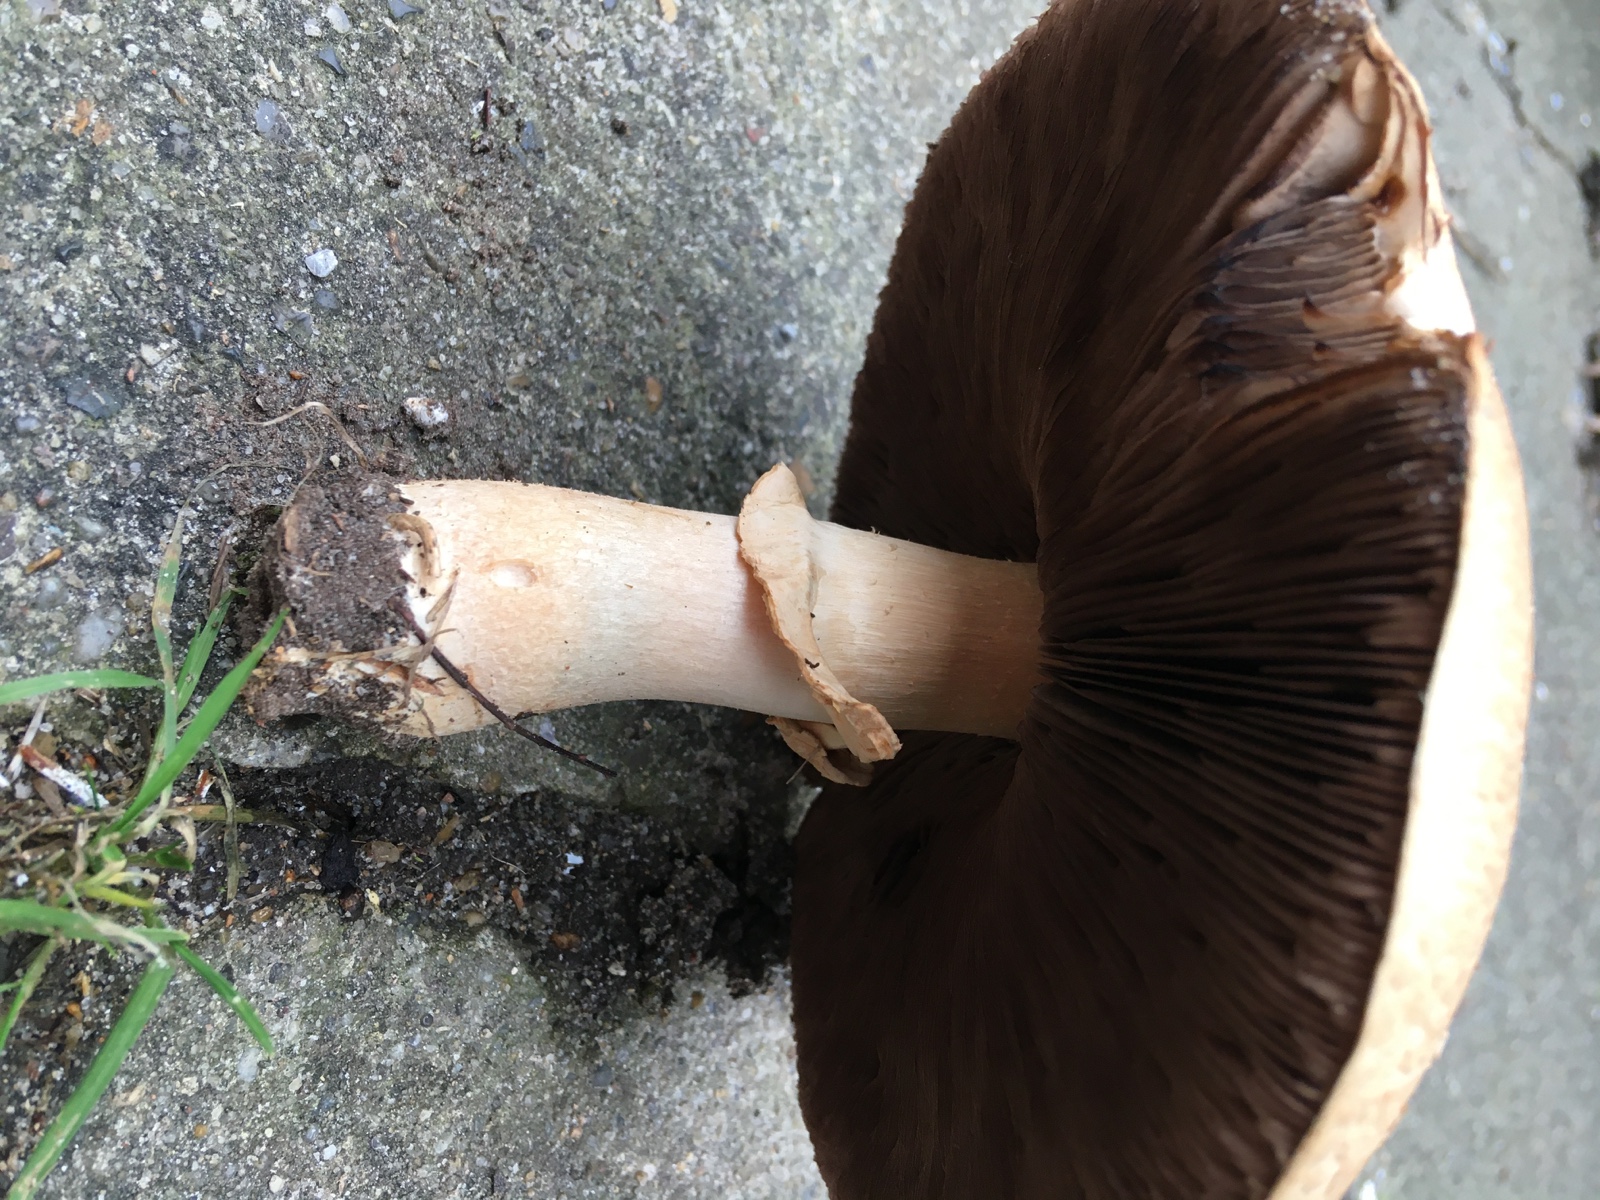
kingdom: Fungi
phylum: Basidiomycota
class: Agaricomycetes
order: Agaricales
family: Agaricaceae
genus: Agaricus
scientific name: Agaricus depauperatus
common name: finskællet champignon
